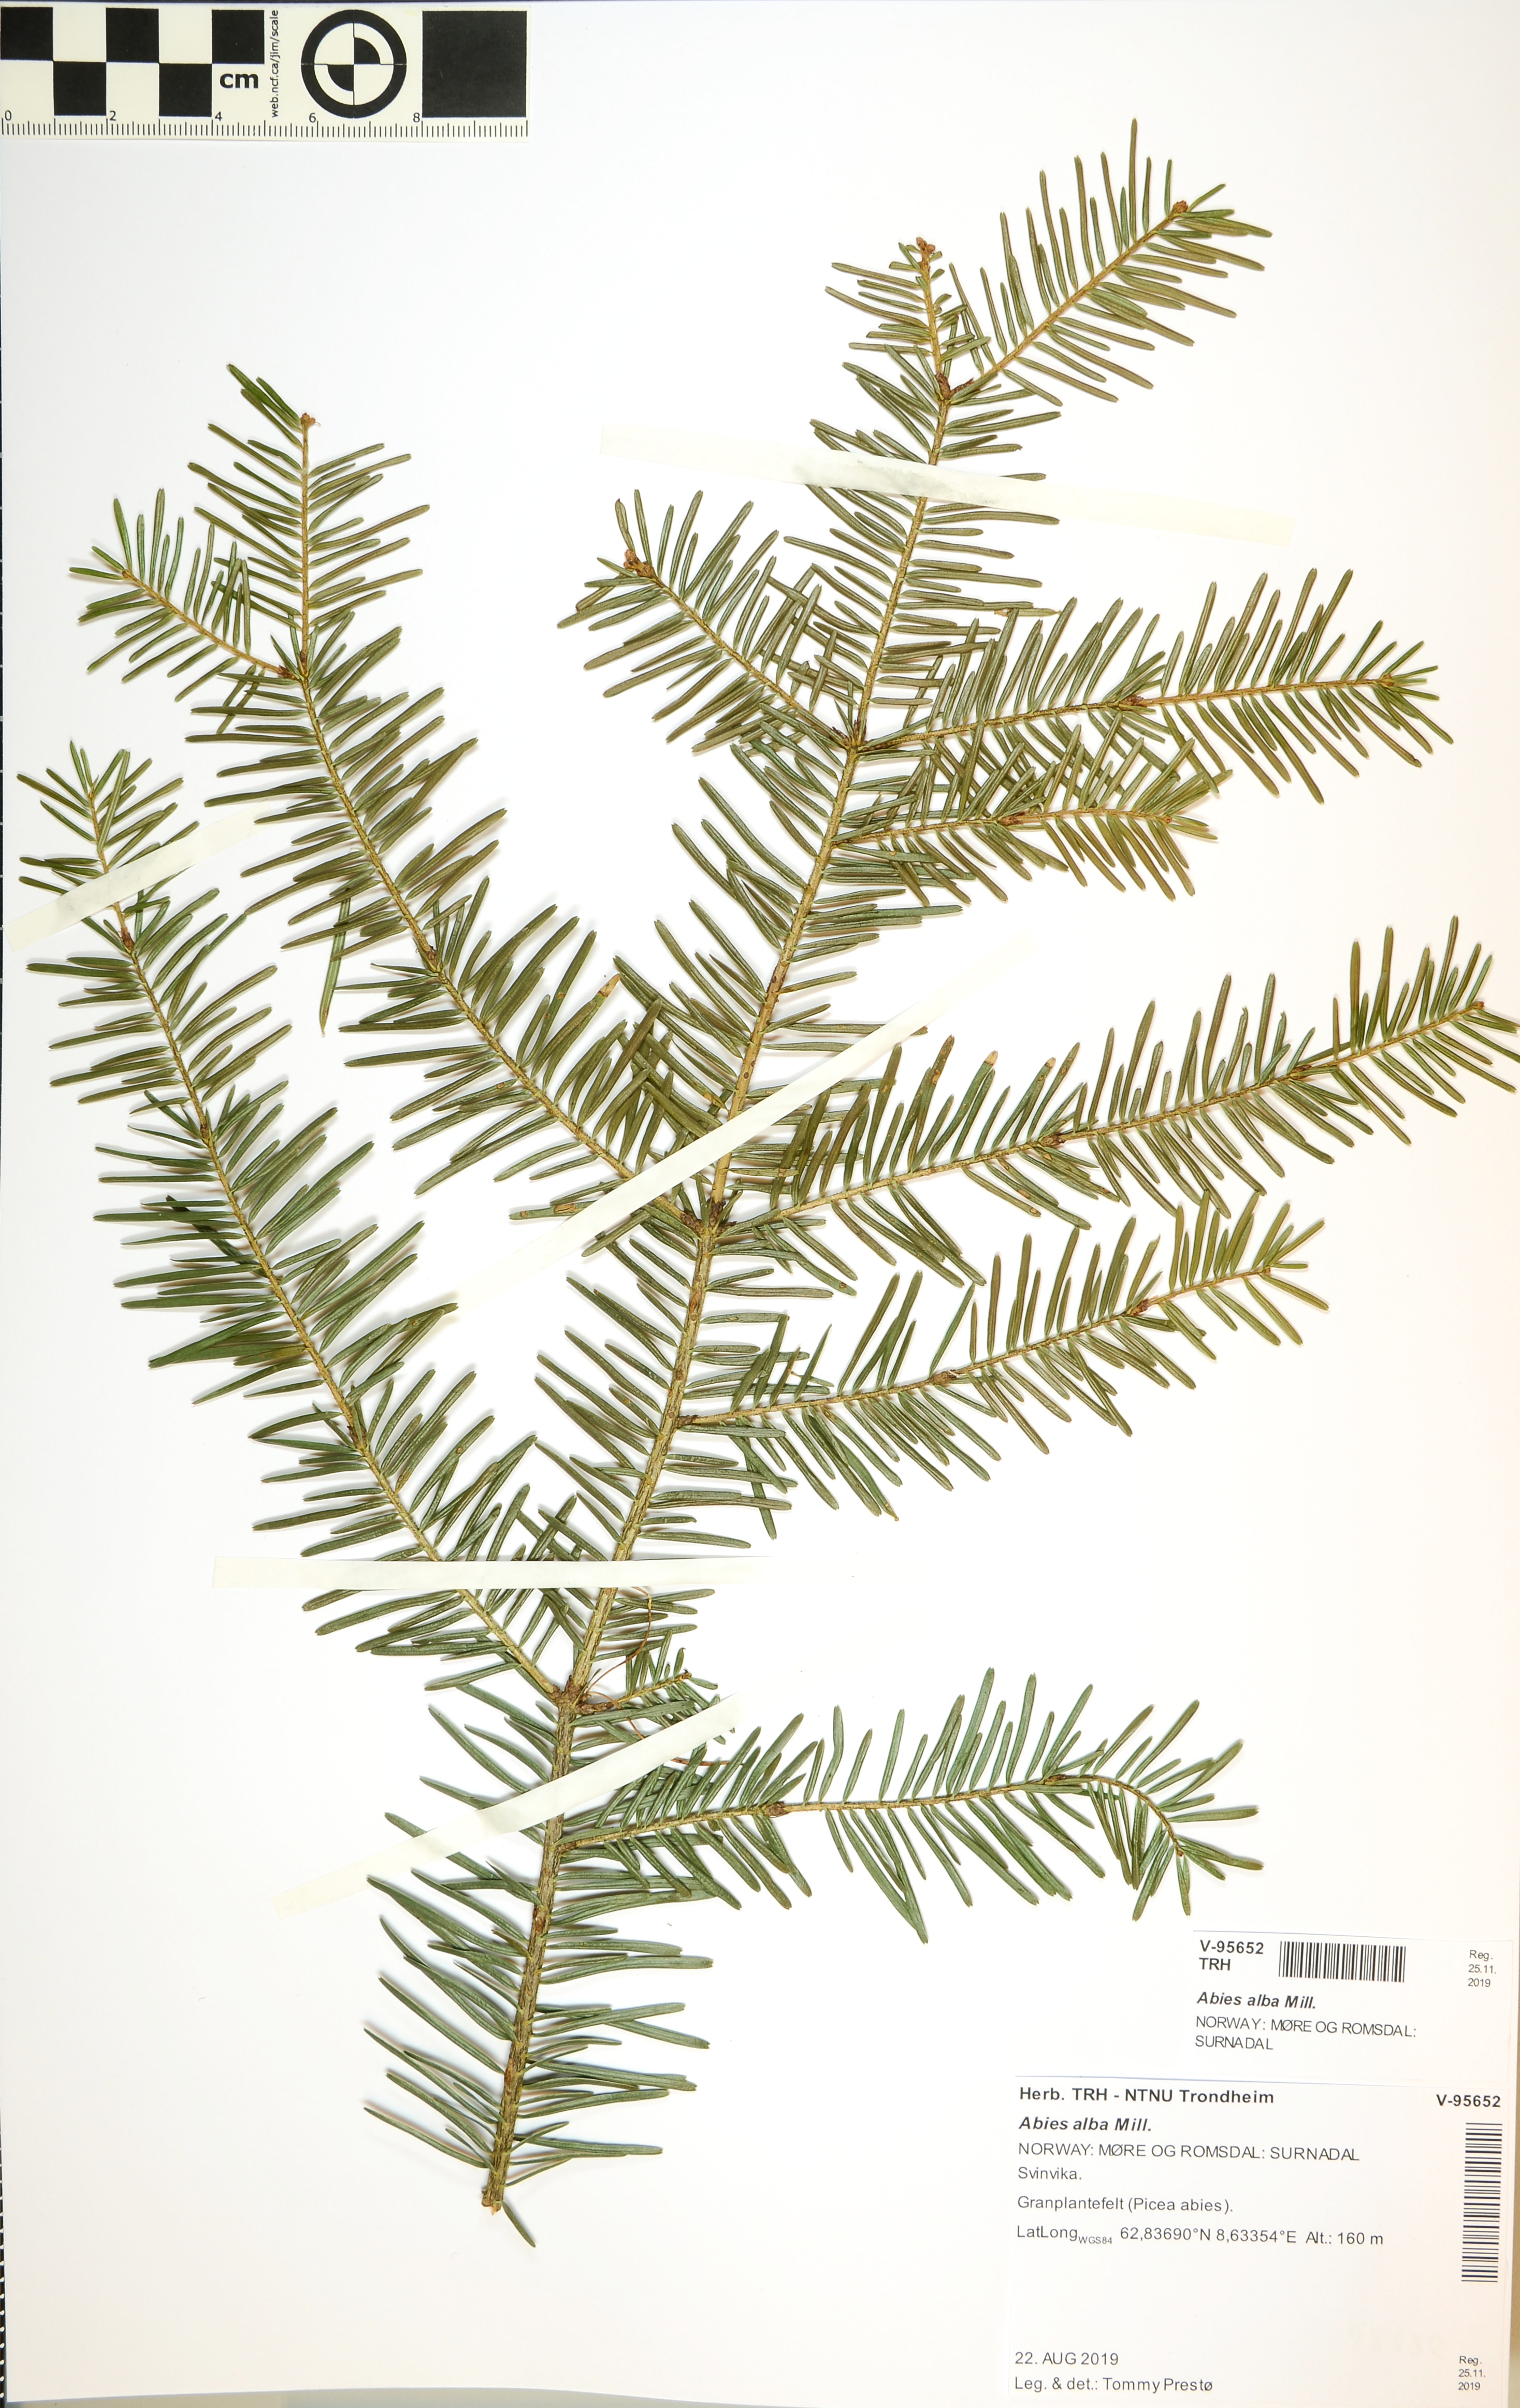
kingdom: Plantae
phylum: Tracheophyta
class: Pinopsida
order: Pinales
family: Pinaceae
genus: Abies
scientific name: Abies alba
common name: Silver fir
